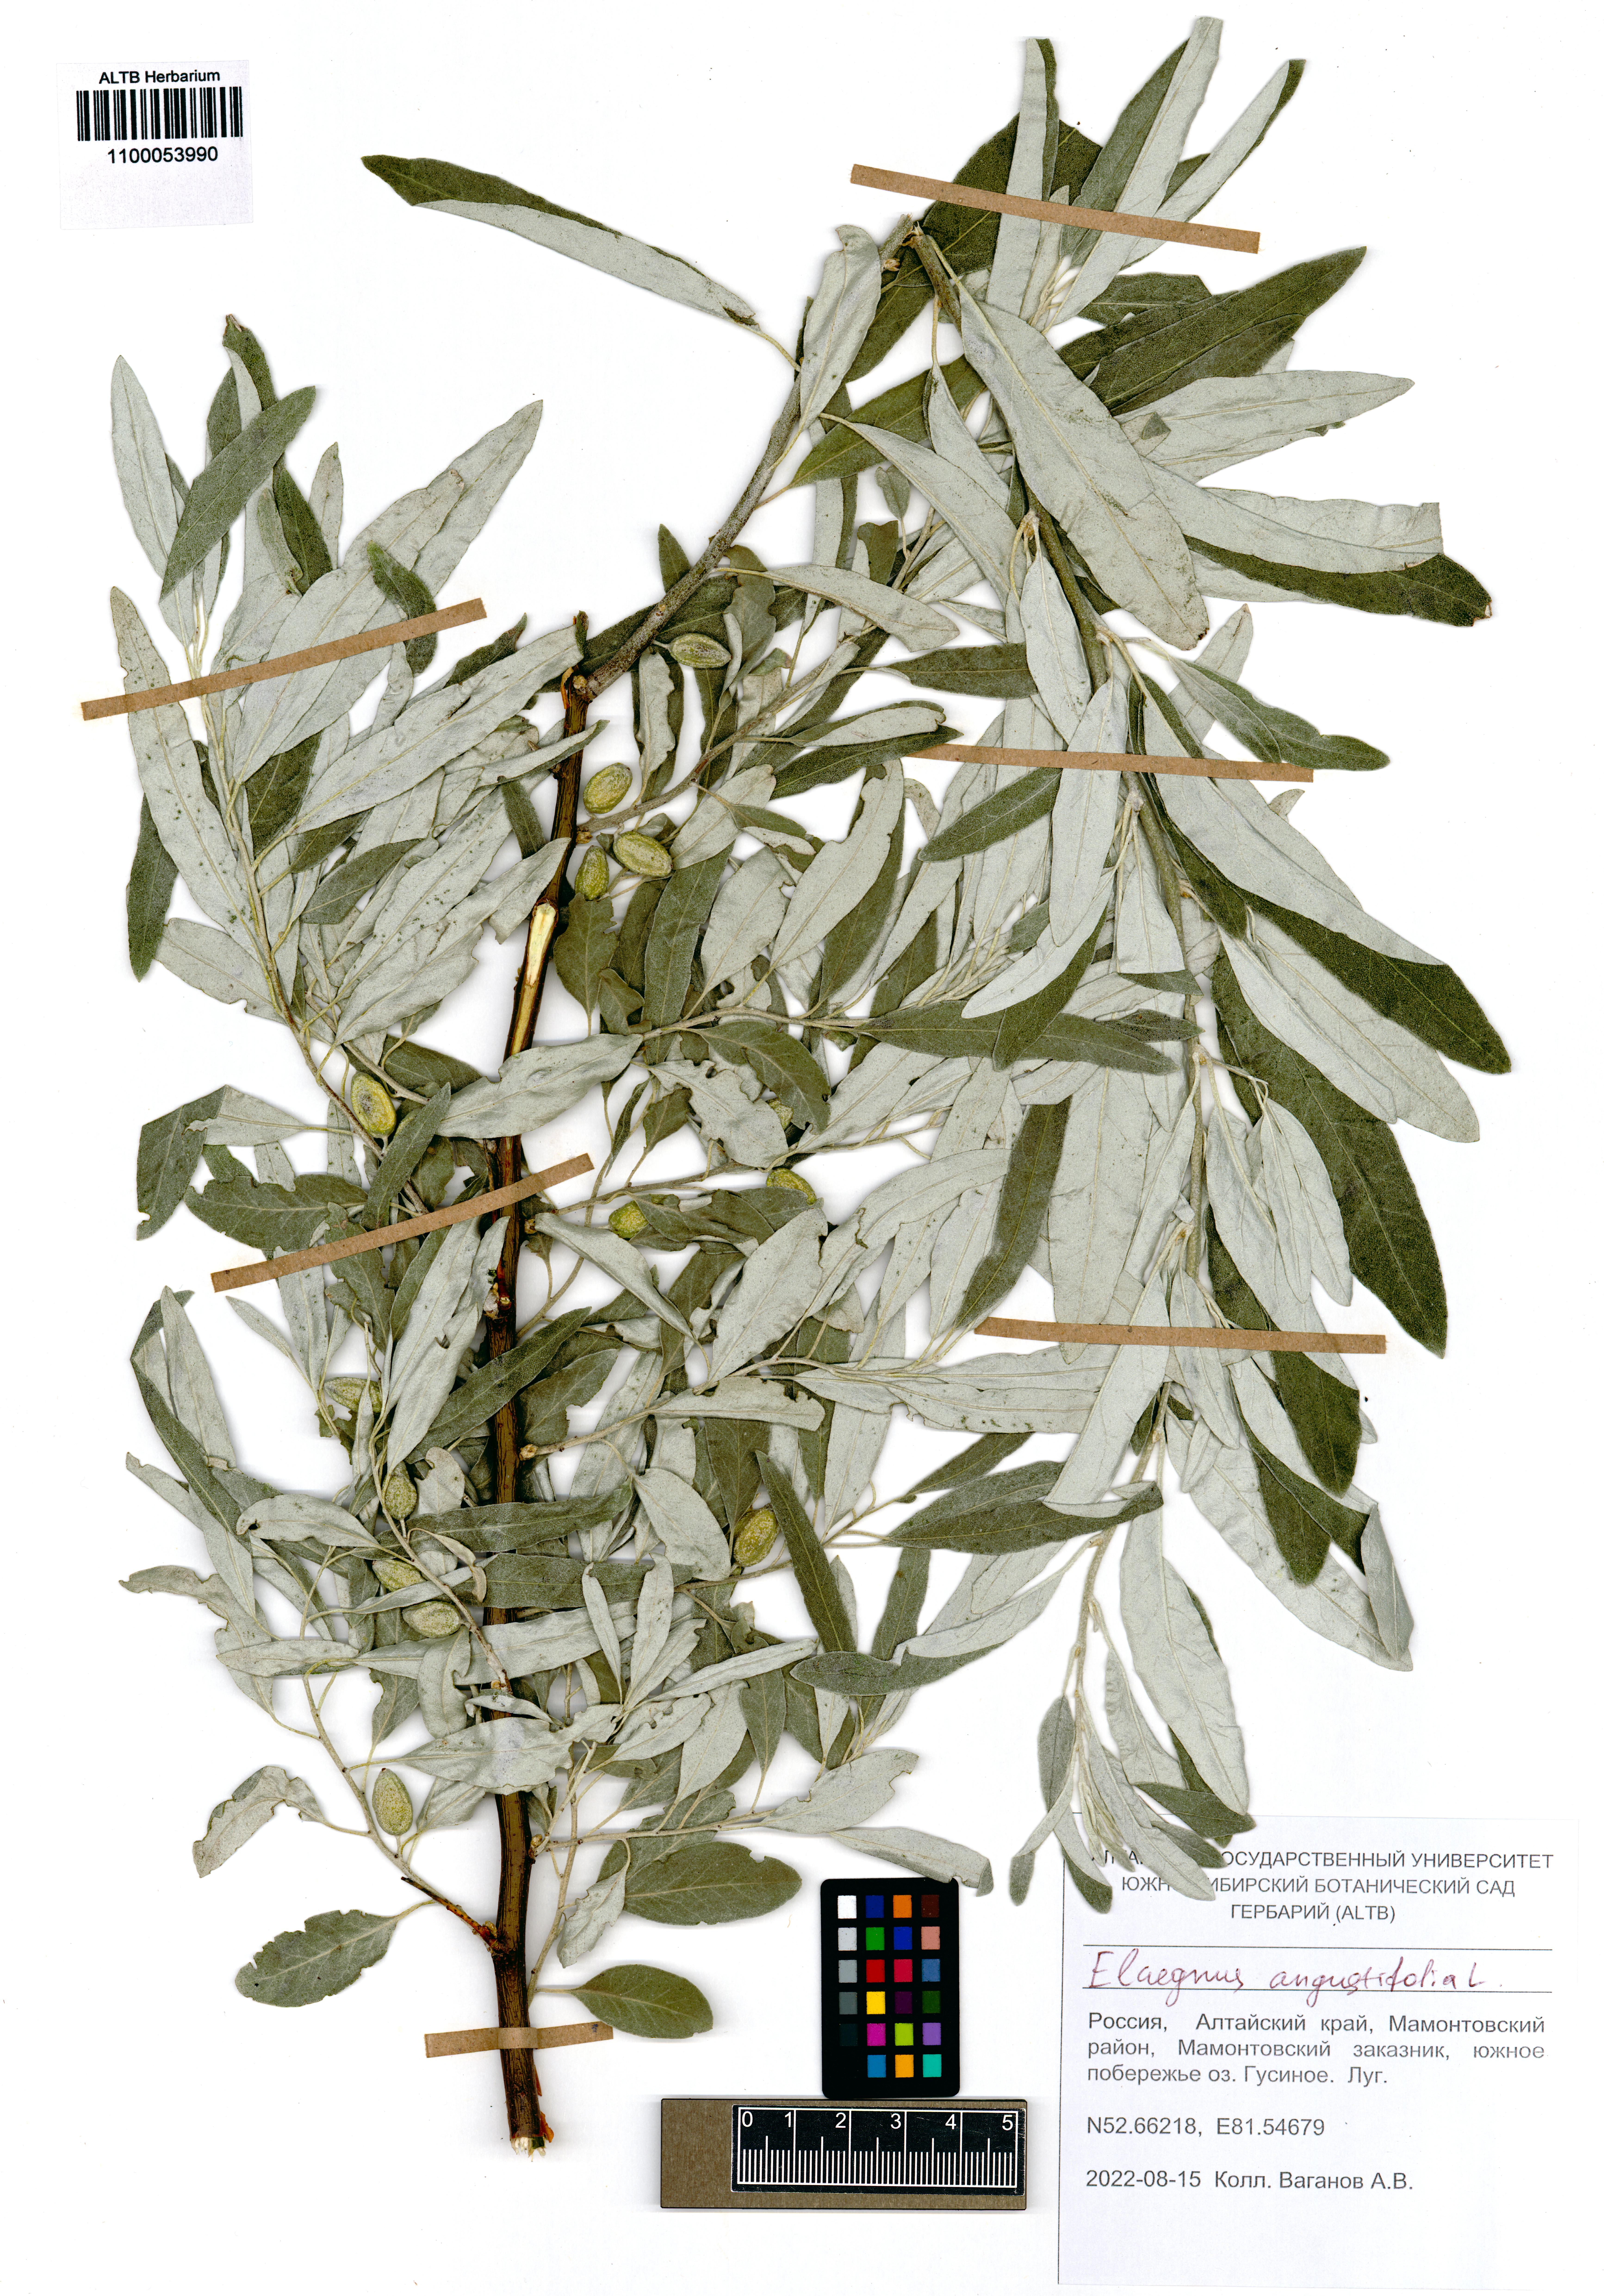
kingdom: Plantae
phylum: Tracheophyta
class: Magnoliopsida
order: Rosales
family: Elaeagnaceae
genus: Elaeagnus
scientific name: Elaeagnus angustifolia
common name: Russian olive
